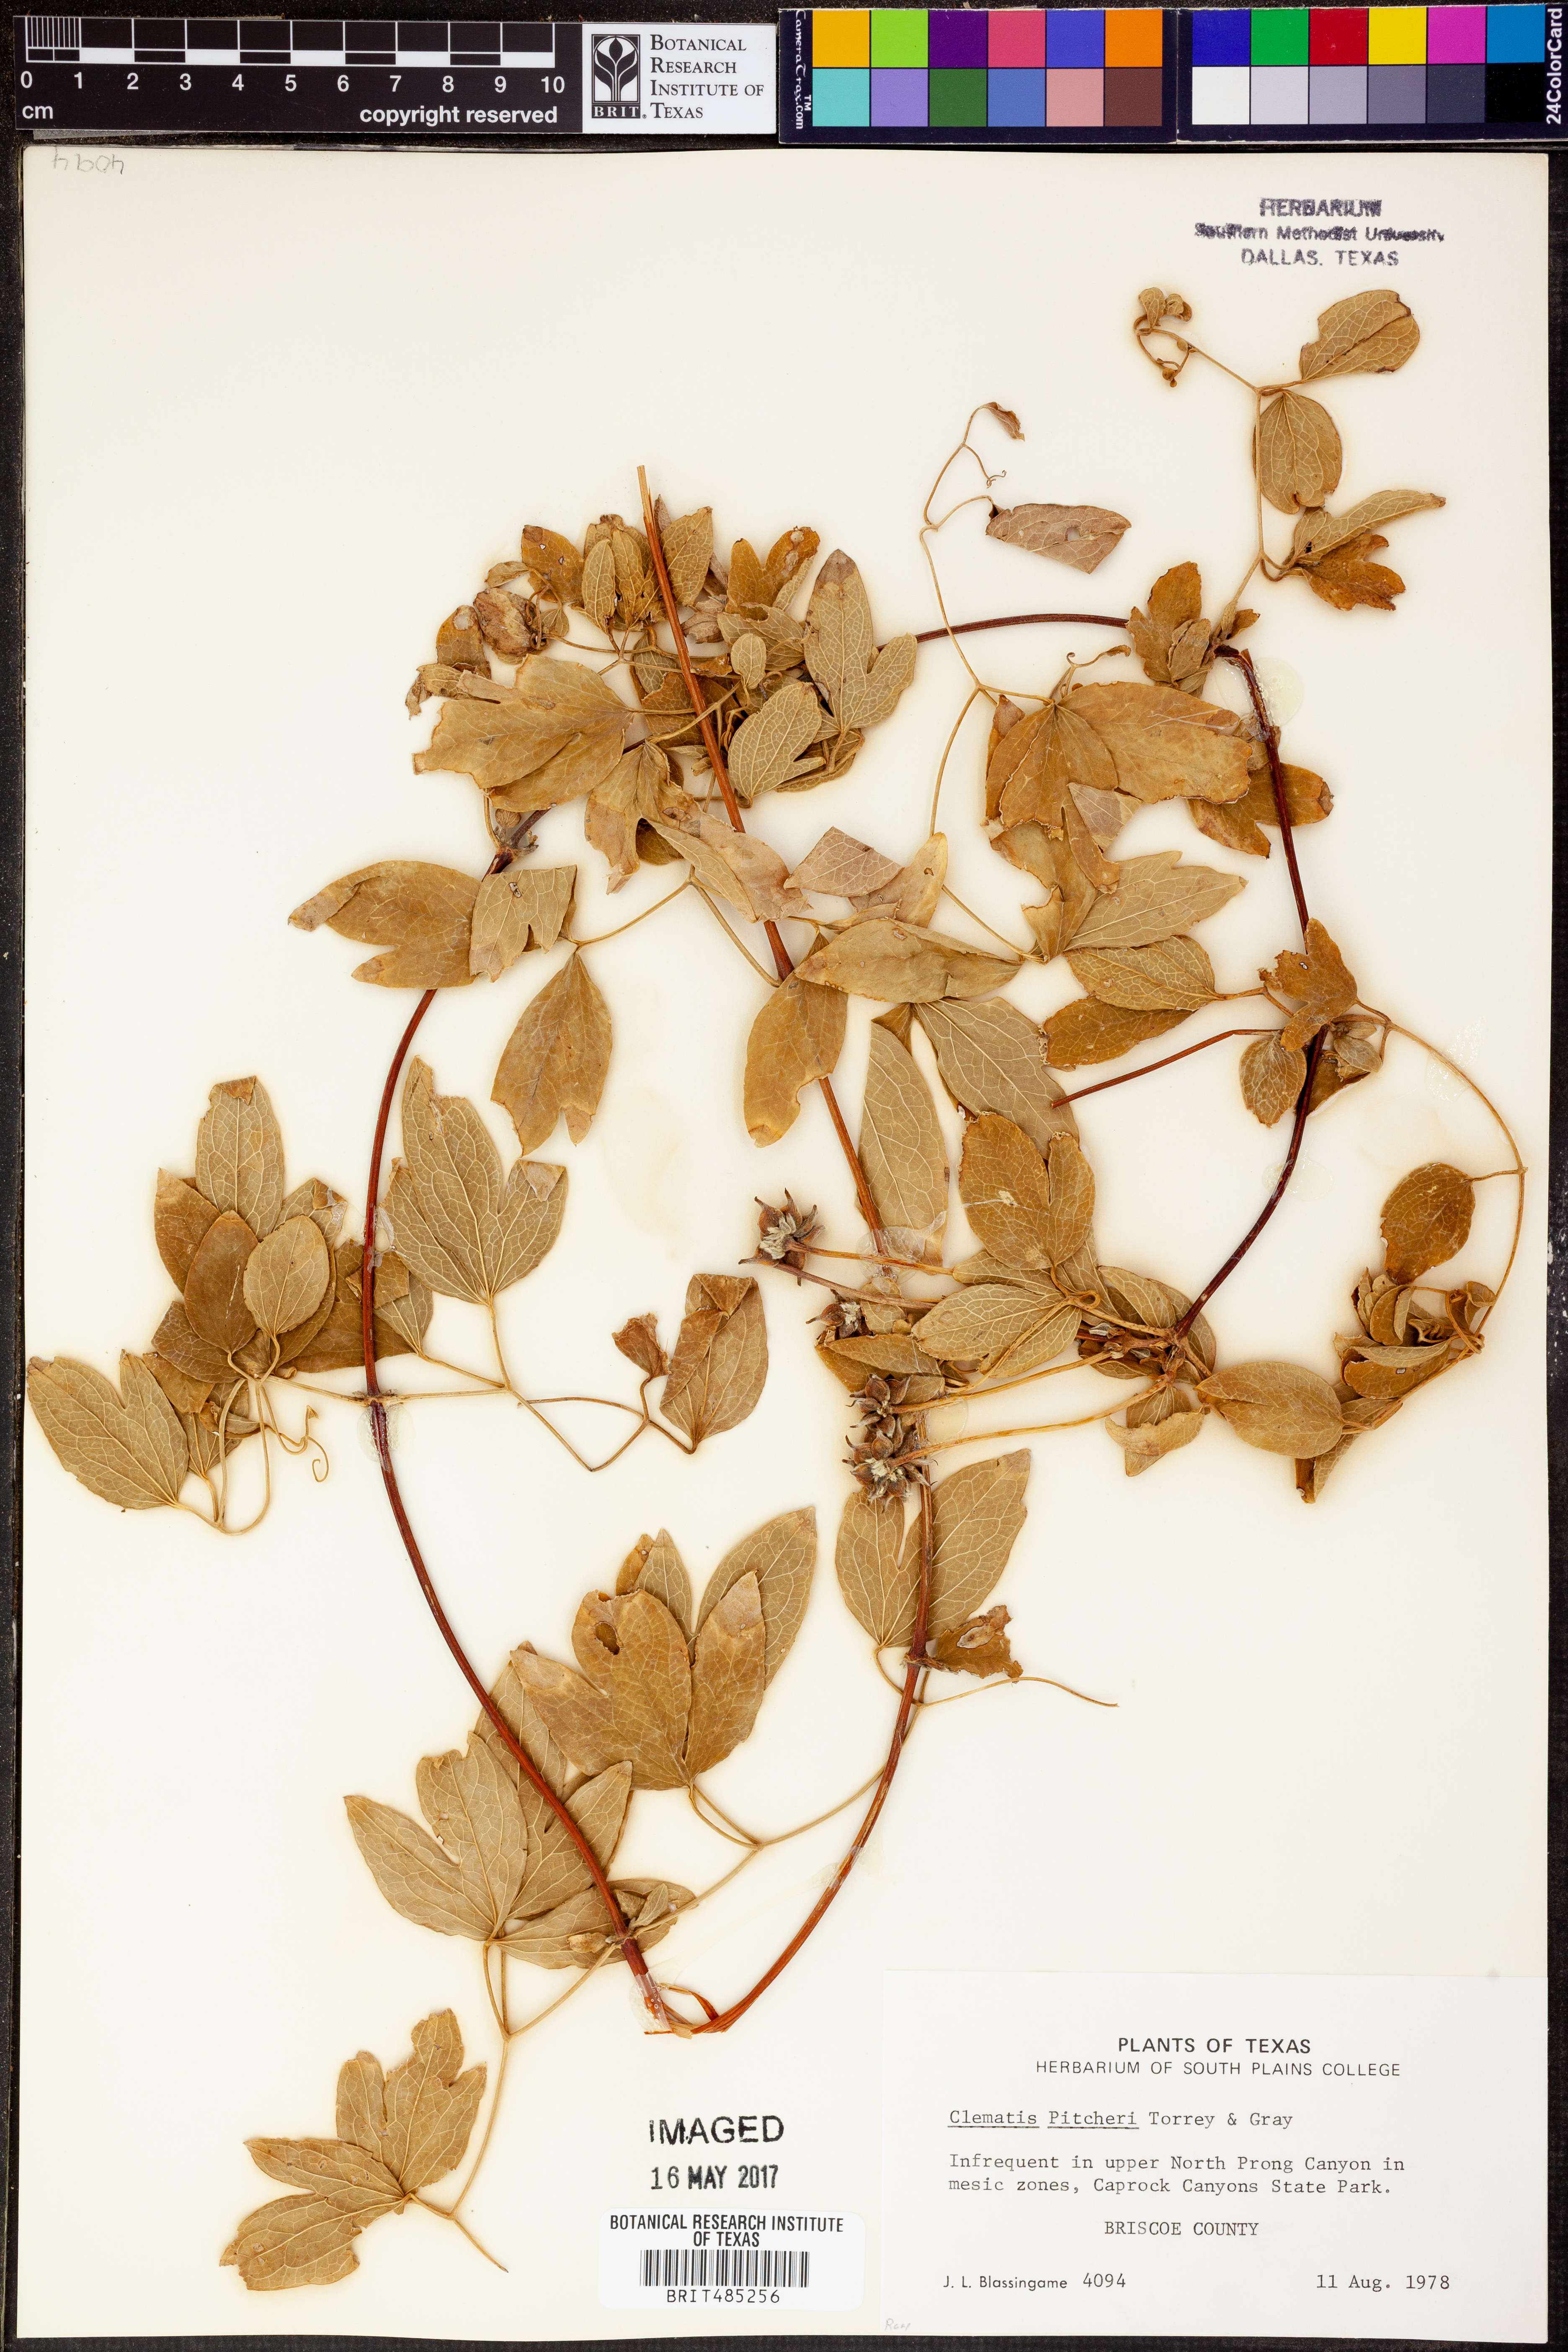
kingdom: Plantae
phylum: Tracheophyta
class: Magnoliopsida
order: Ranunculales
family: Ranunculaceae
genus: Clematis
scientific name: Clematis pitcheri
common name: Bellflower clematis
